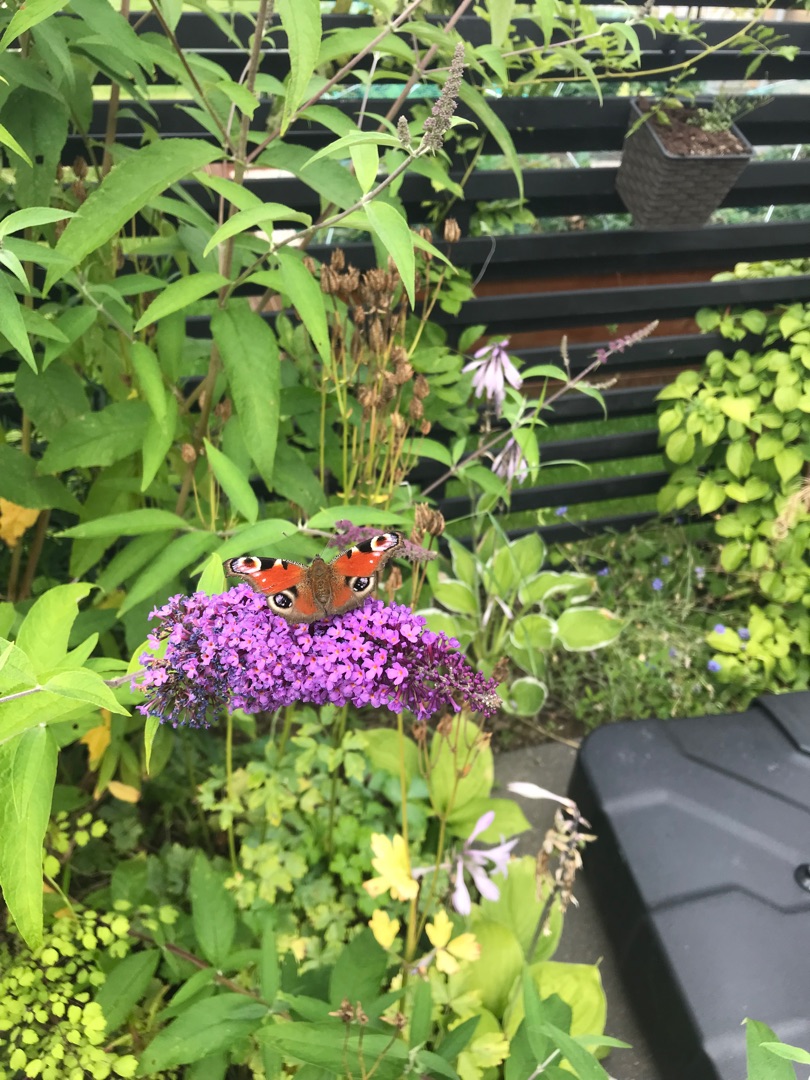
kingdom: Animalia
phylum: Arthropoda
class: Insecta
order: Lepidoptera
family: Nymphalidae
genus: Aglais
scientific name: Aglais io
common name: Dagpåfugleøje
